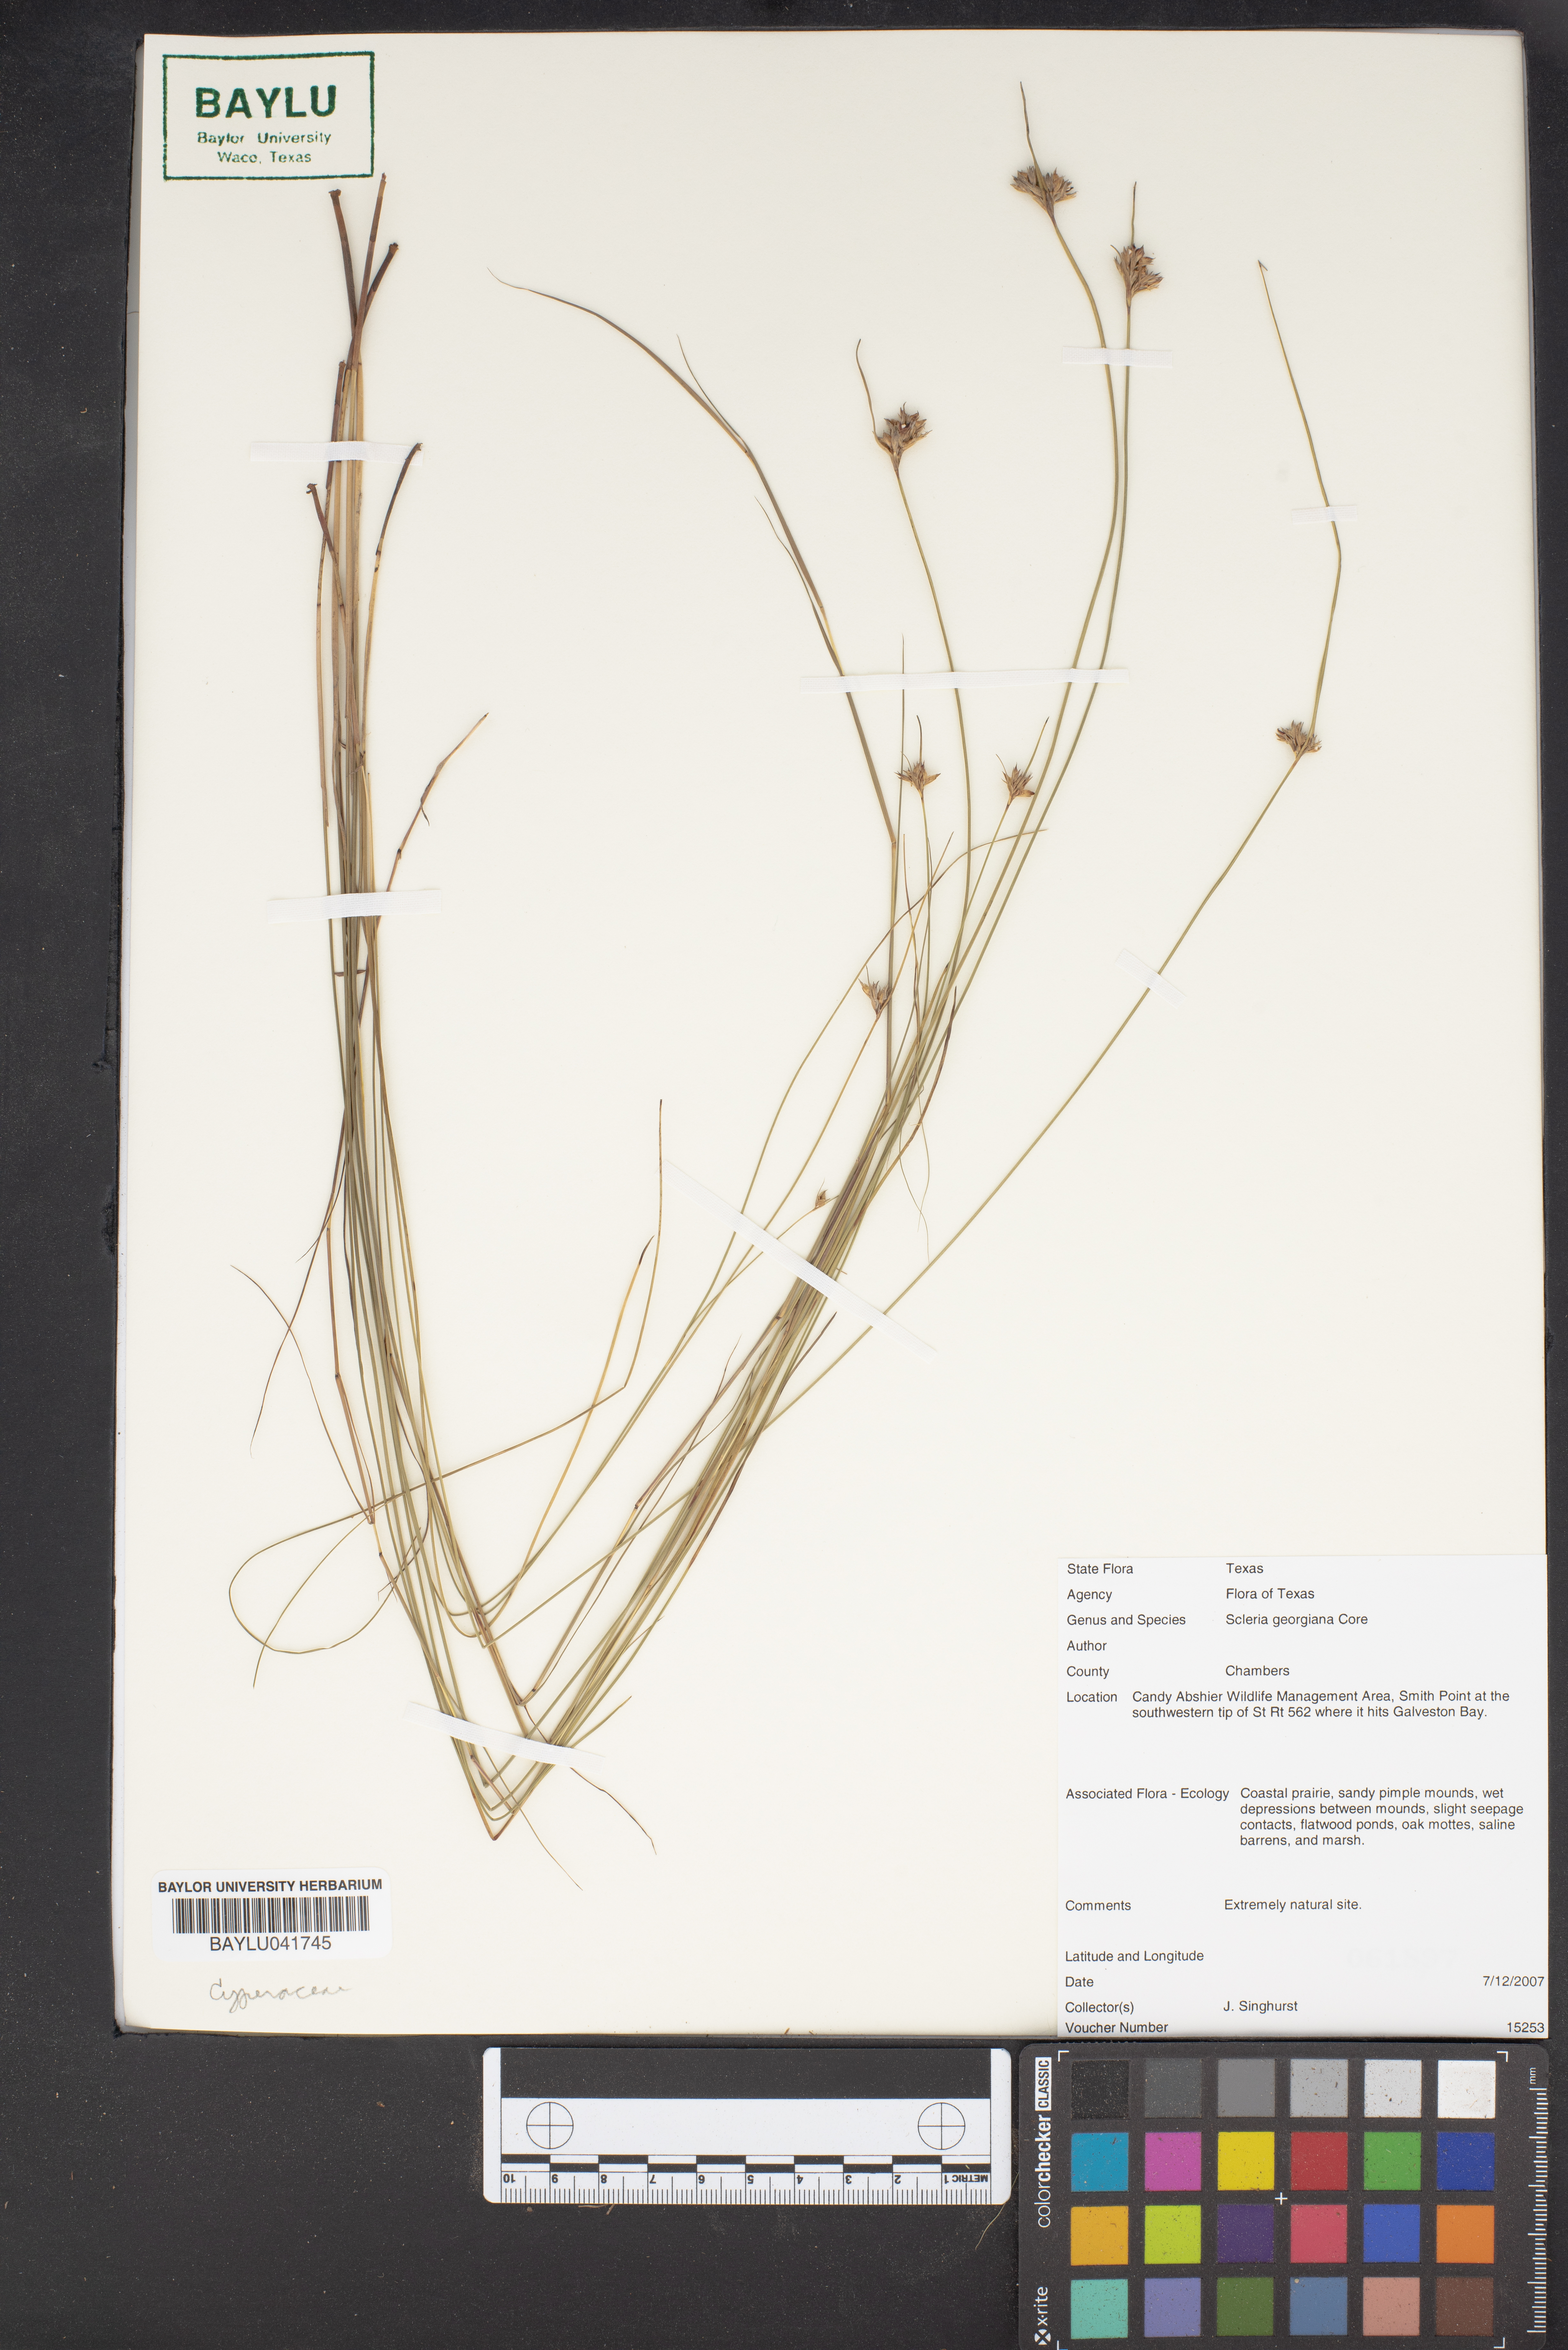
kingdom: Plantae
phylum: Tracheophyta
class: Liliopsida
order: Poales
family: Cyperaceae
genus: Scleria
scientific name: Scleria georgiana
